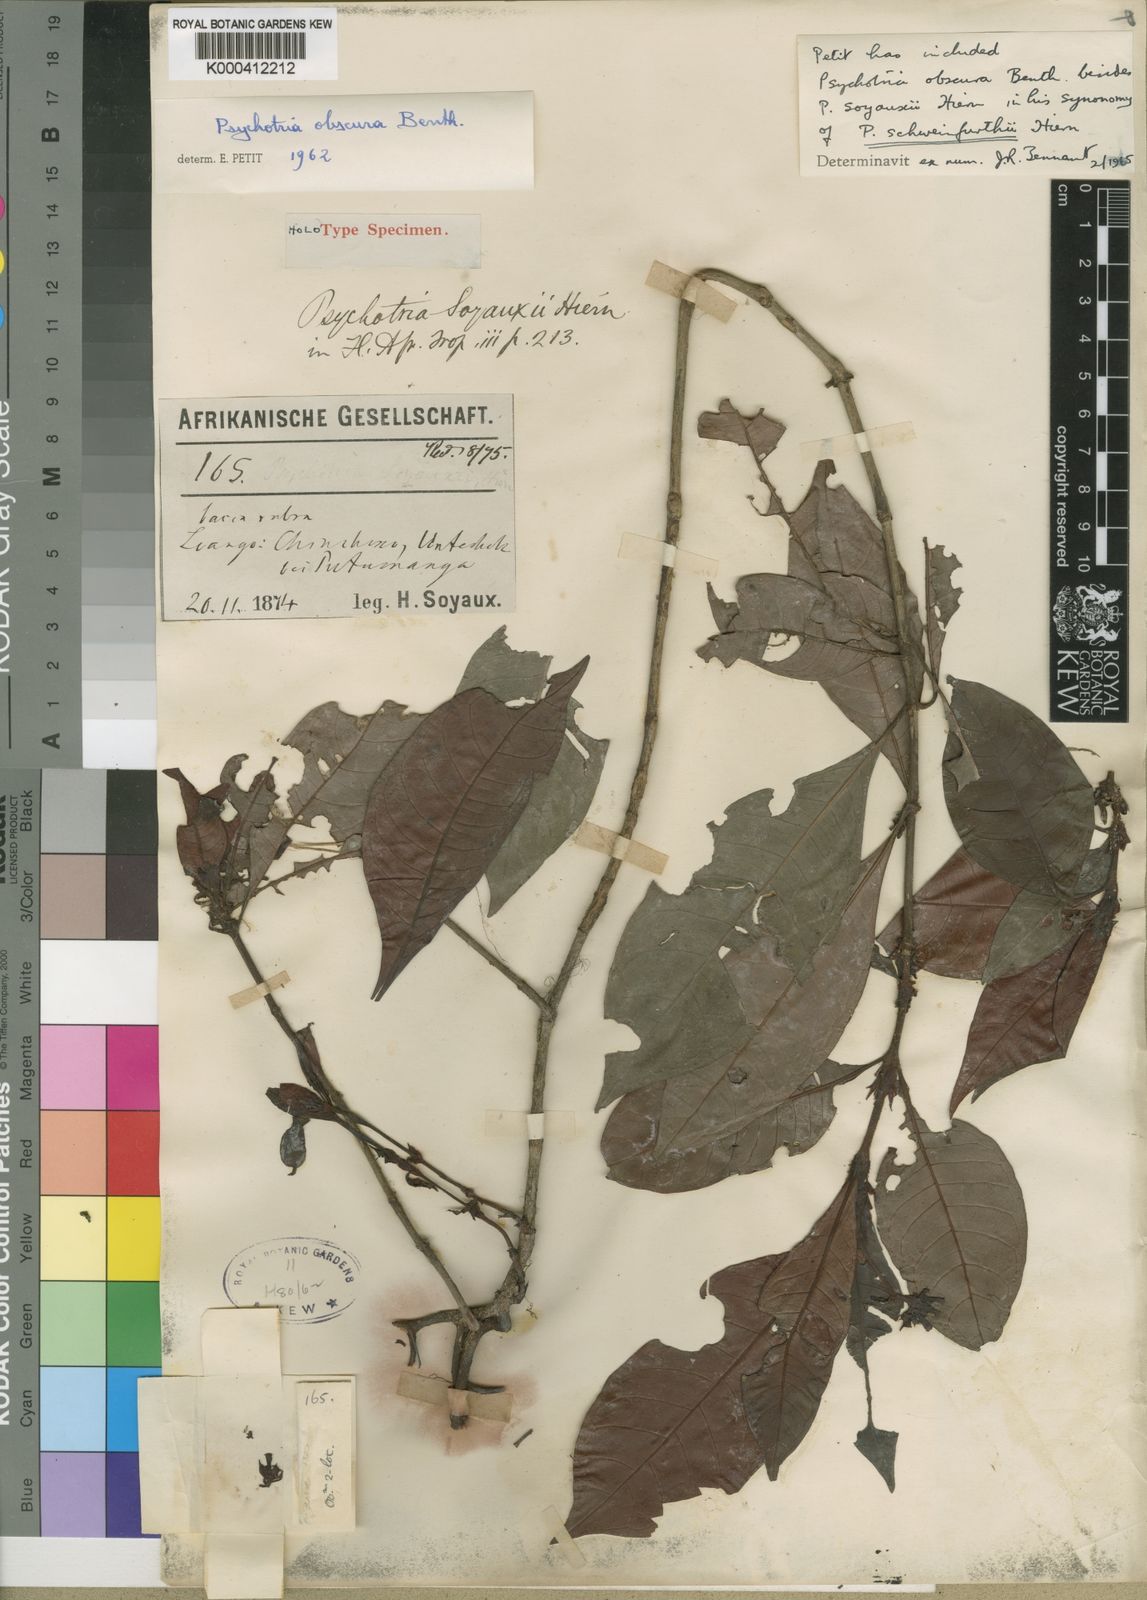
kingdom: Plantae
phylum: Tracheophyta
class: Magnoliopsida
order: Gentianales
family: Rubiaceae
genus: Psychotria
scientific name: Psychotria schweinfurthii
